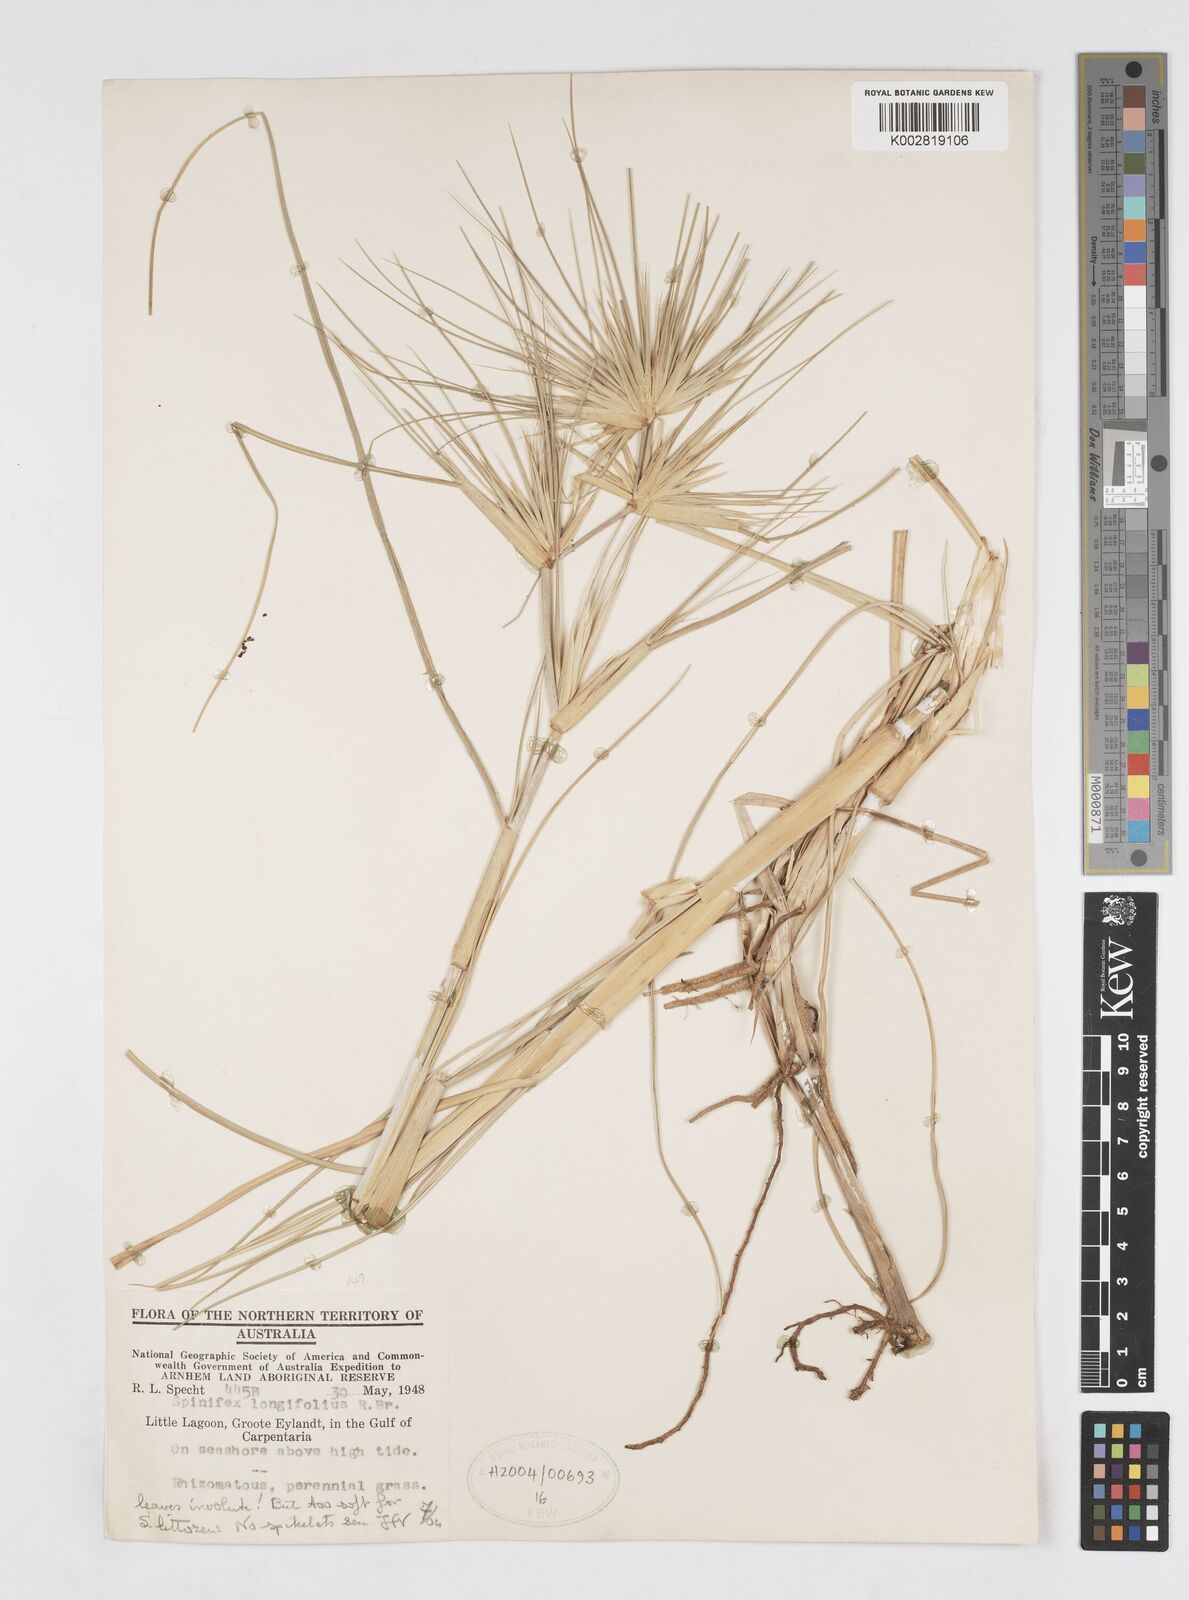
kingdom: Plantae
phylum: Tracheophyta
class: Liliopsida
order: Poales
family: Poaceae
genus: Spinifex
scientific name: Spinifex longifolius
